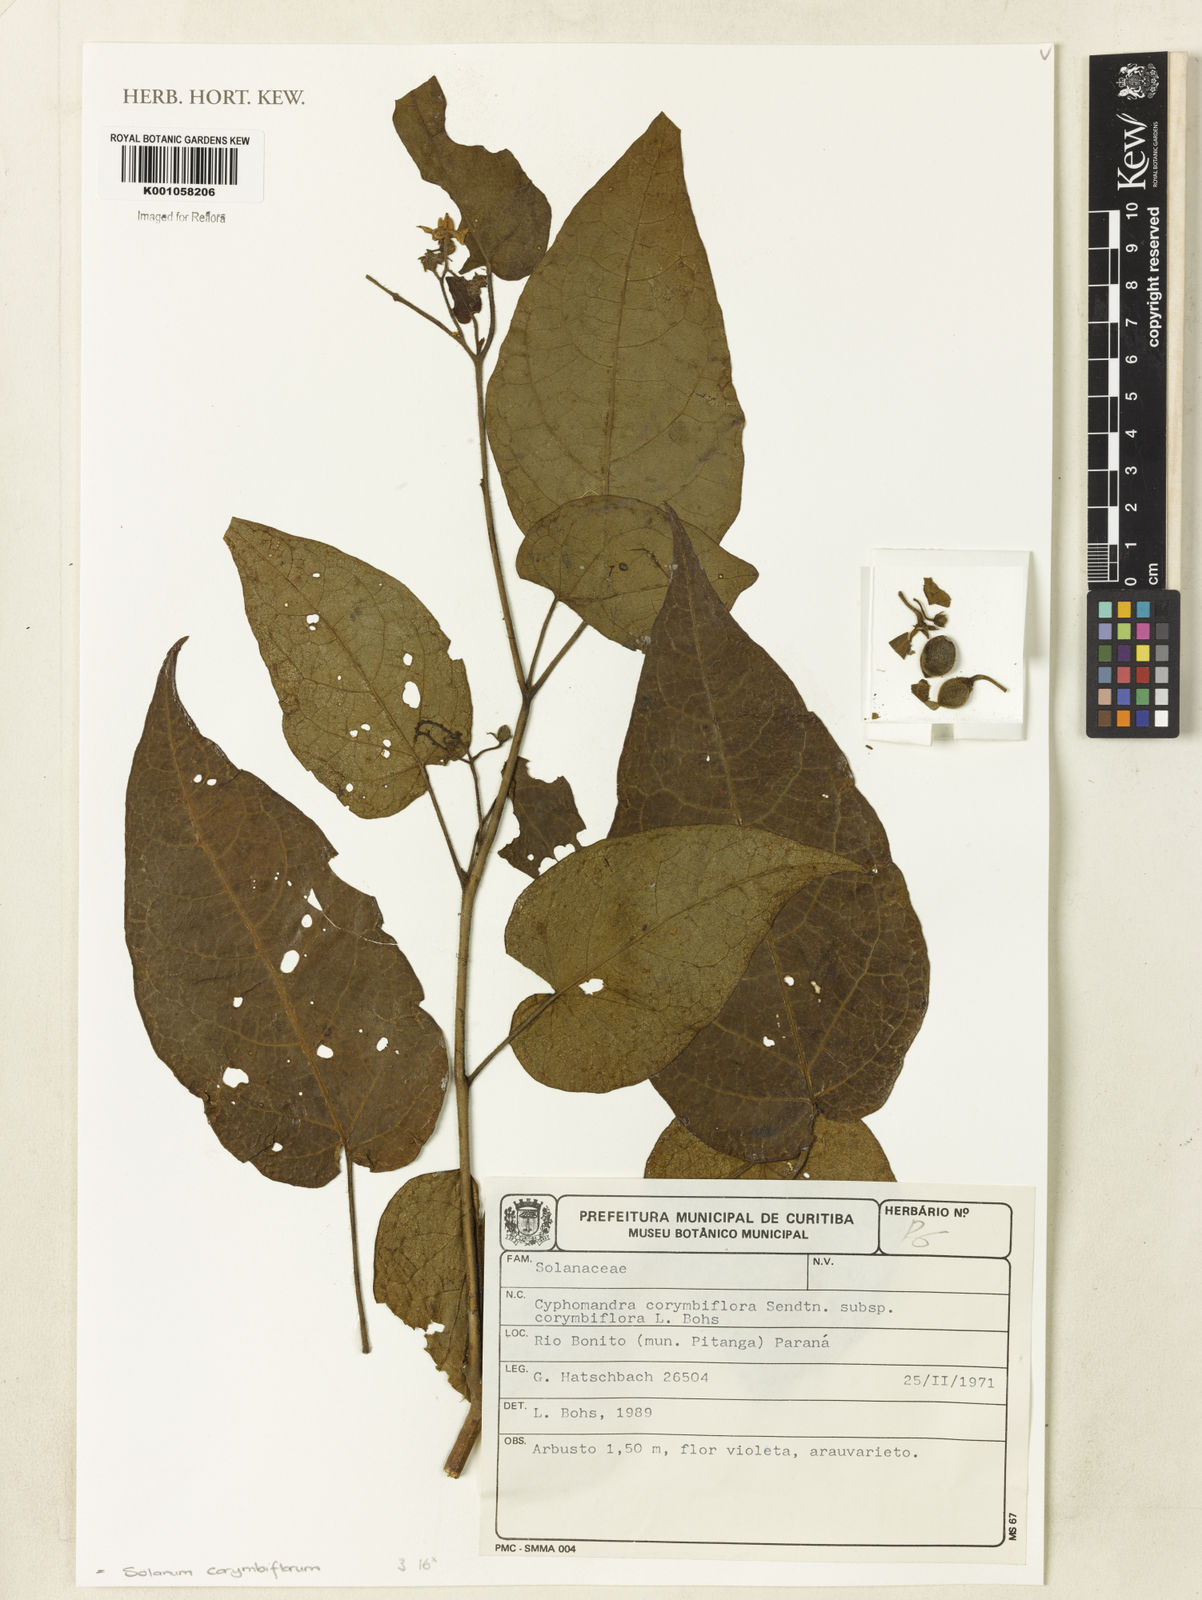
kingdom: Plantae
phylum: Tracheophyta
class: Magnoliopsida
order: Solanales
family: Solanaceae
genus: Solanum
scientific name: Solanum corymbiflorum
